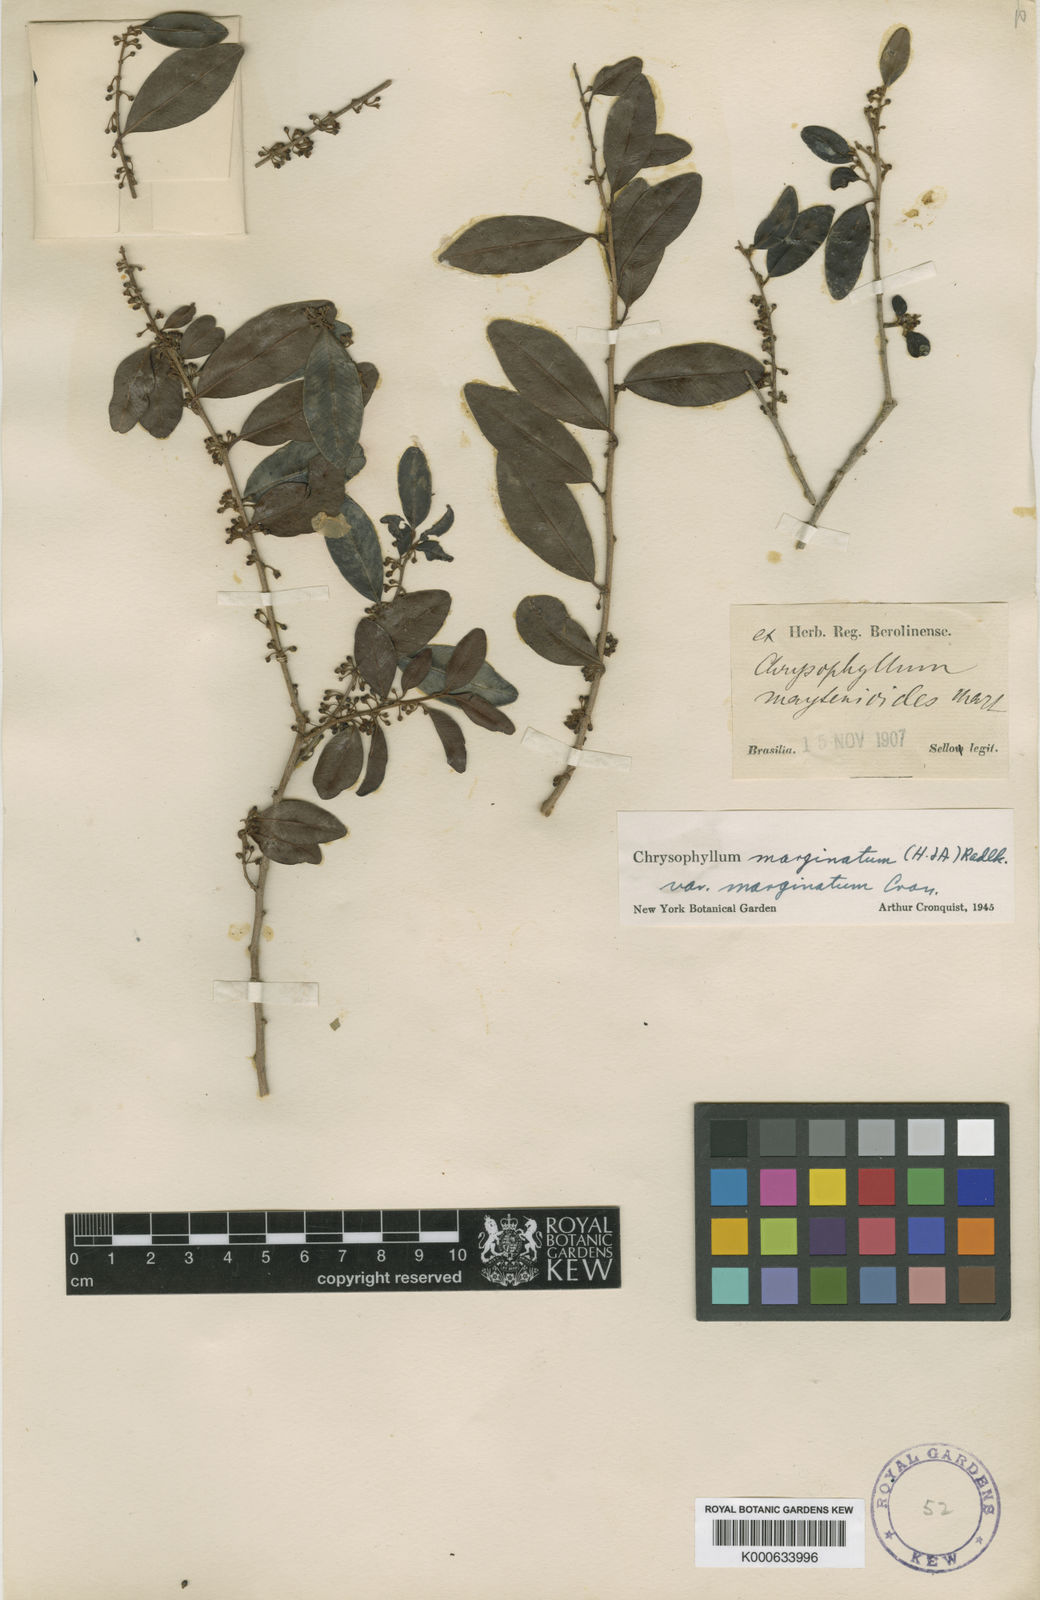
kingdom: Plantae
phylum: Tracheophyta
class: Magnoliopsida
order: Ericales
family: Sapotaceae
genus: Chrysophyllum
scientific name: Chrysophyllum marginatum
